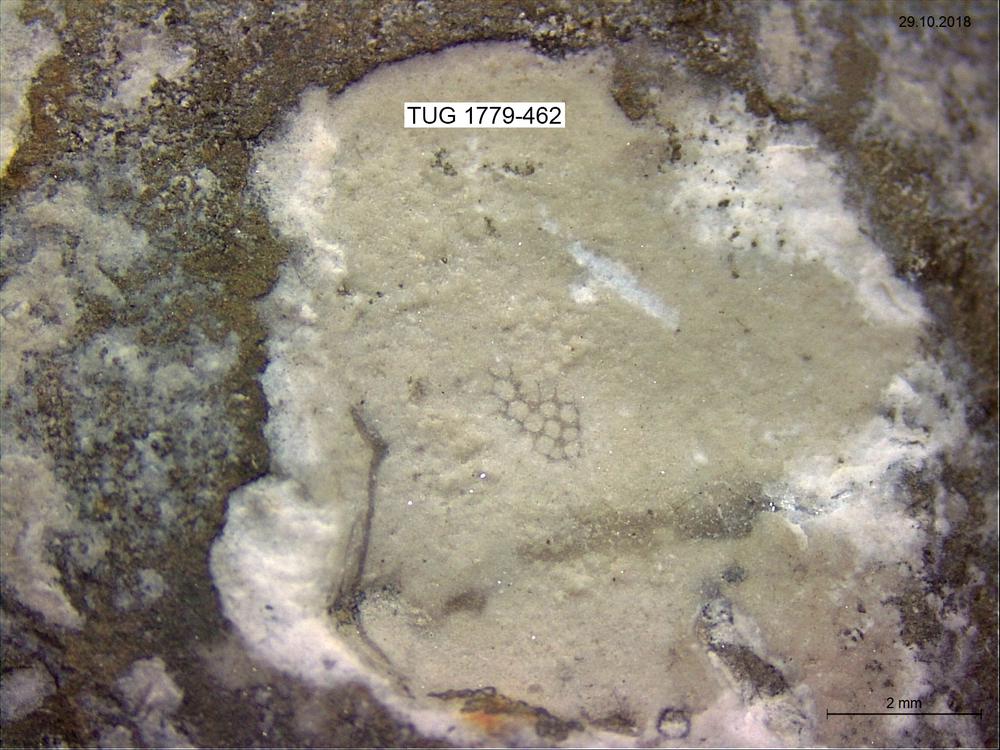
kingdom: Animalia
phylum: Bryozoa
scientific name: Bryozoa
